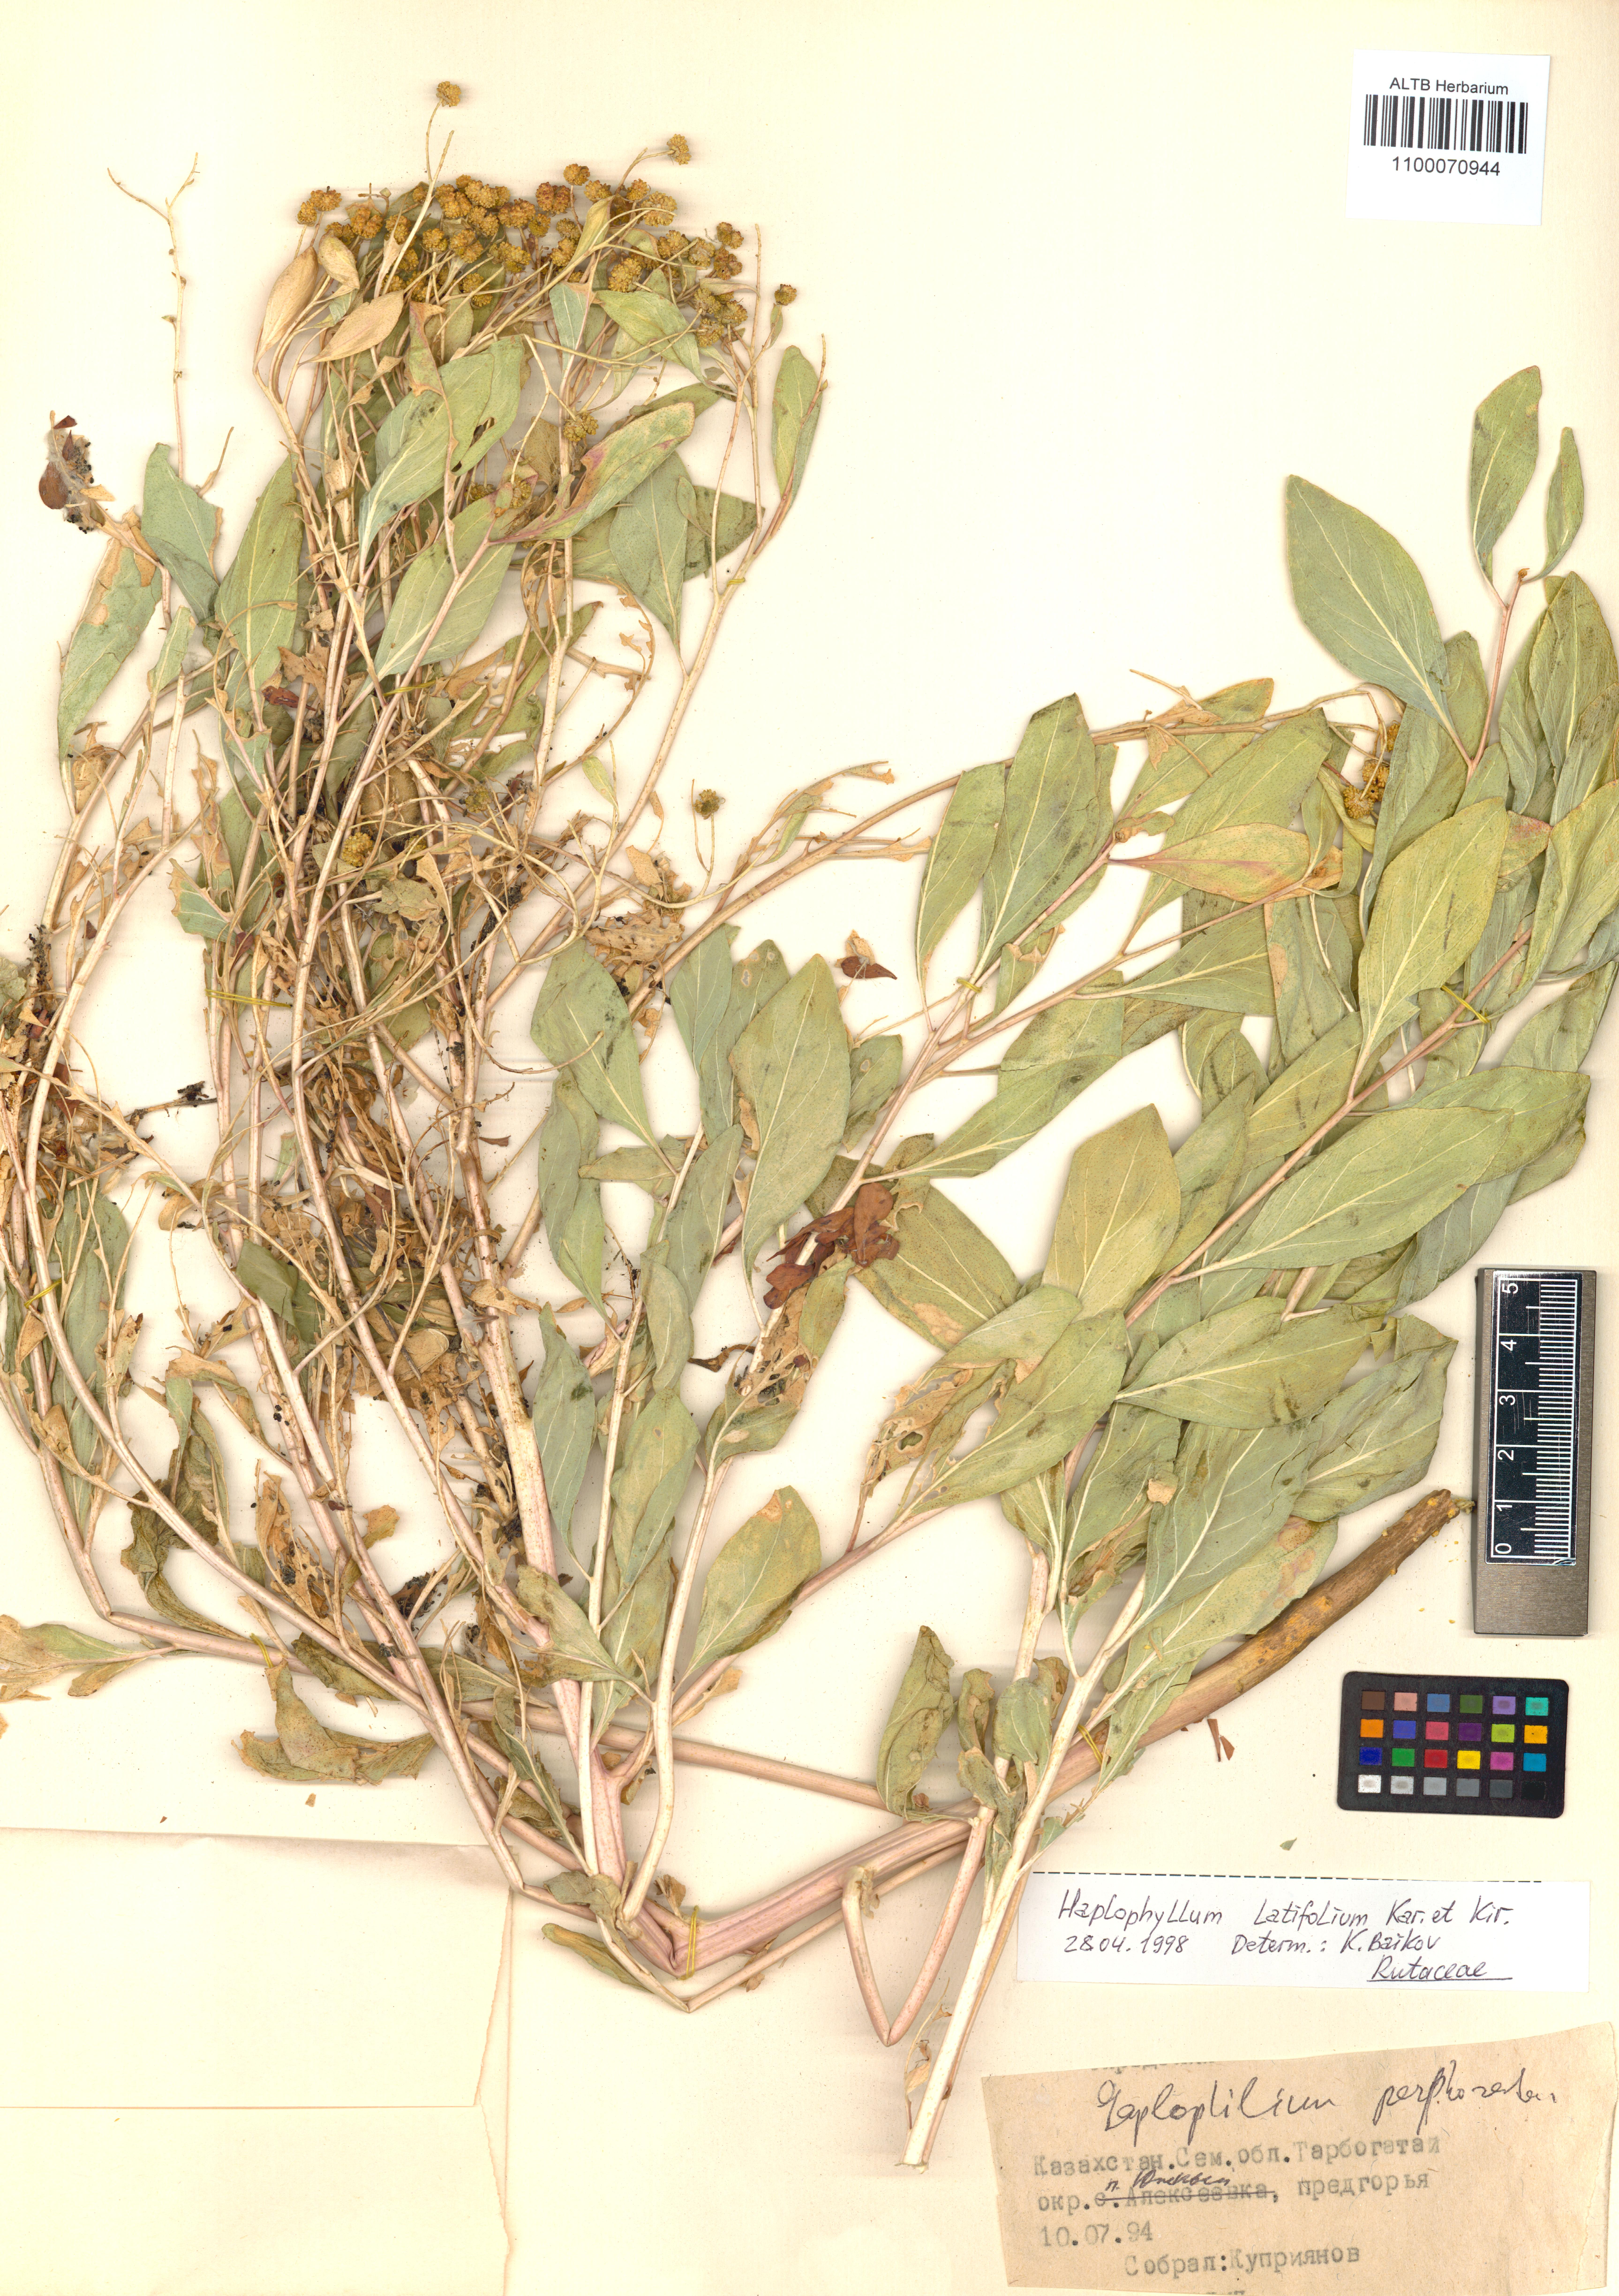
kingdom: Plantae
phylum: Tracheophyta
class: Magnoliopsida
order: Sapindales
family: Rutaceae
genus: Haplophyllum
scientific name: Haplophyllum latifolium
